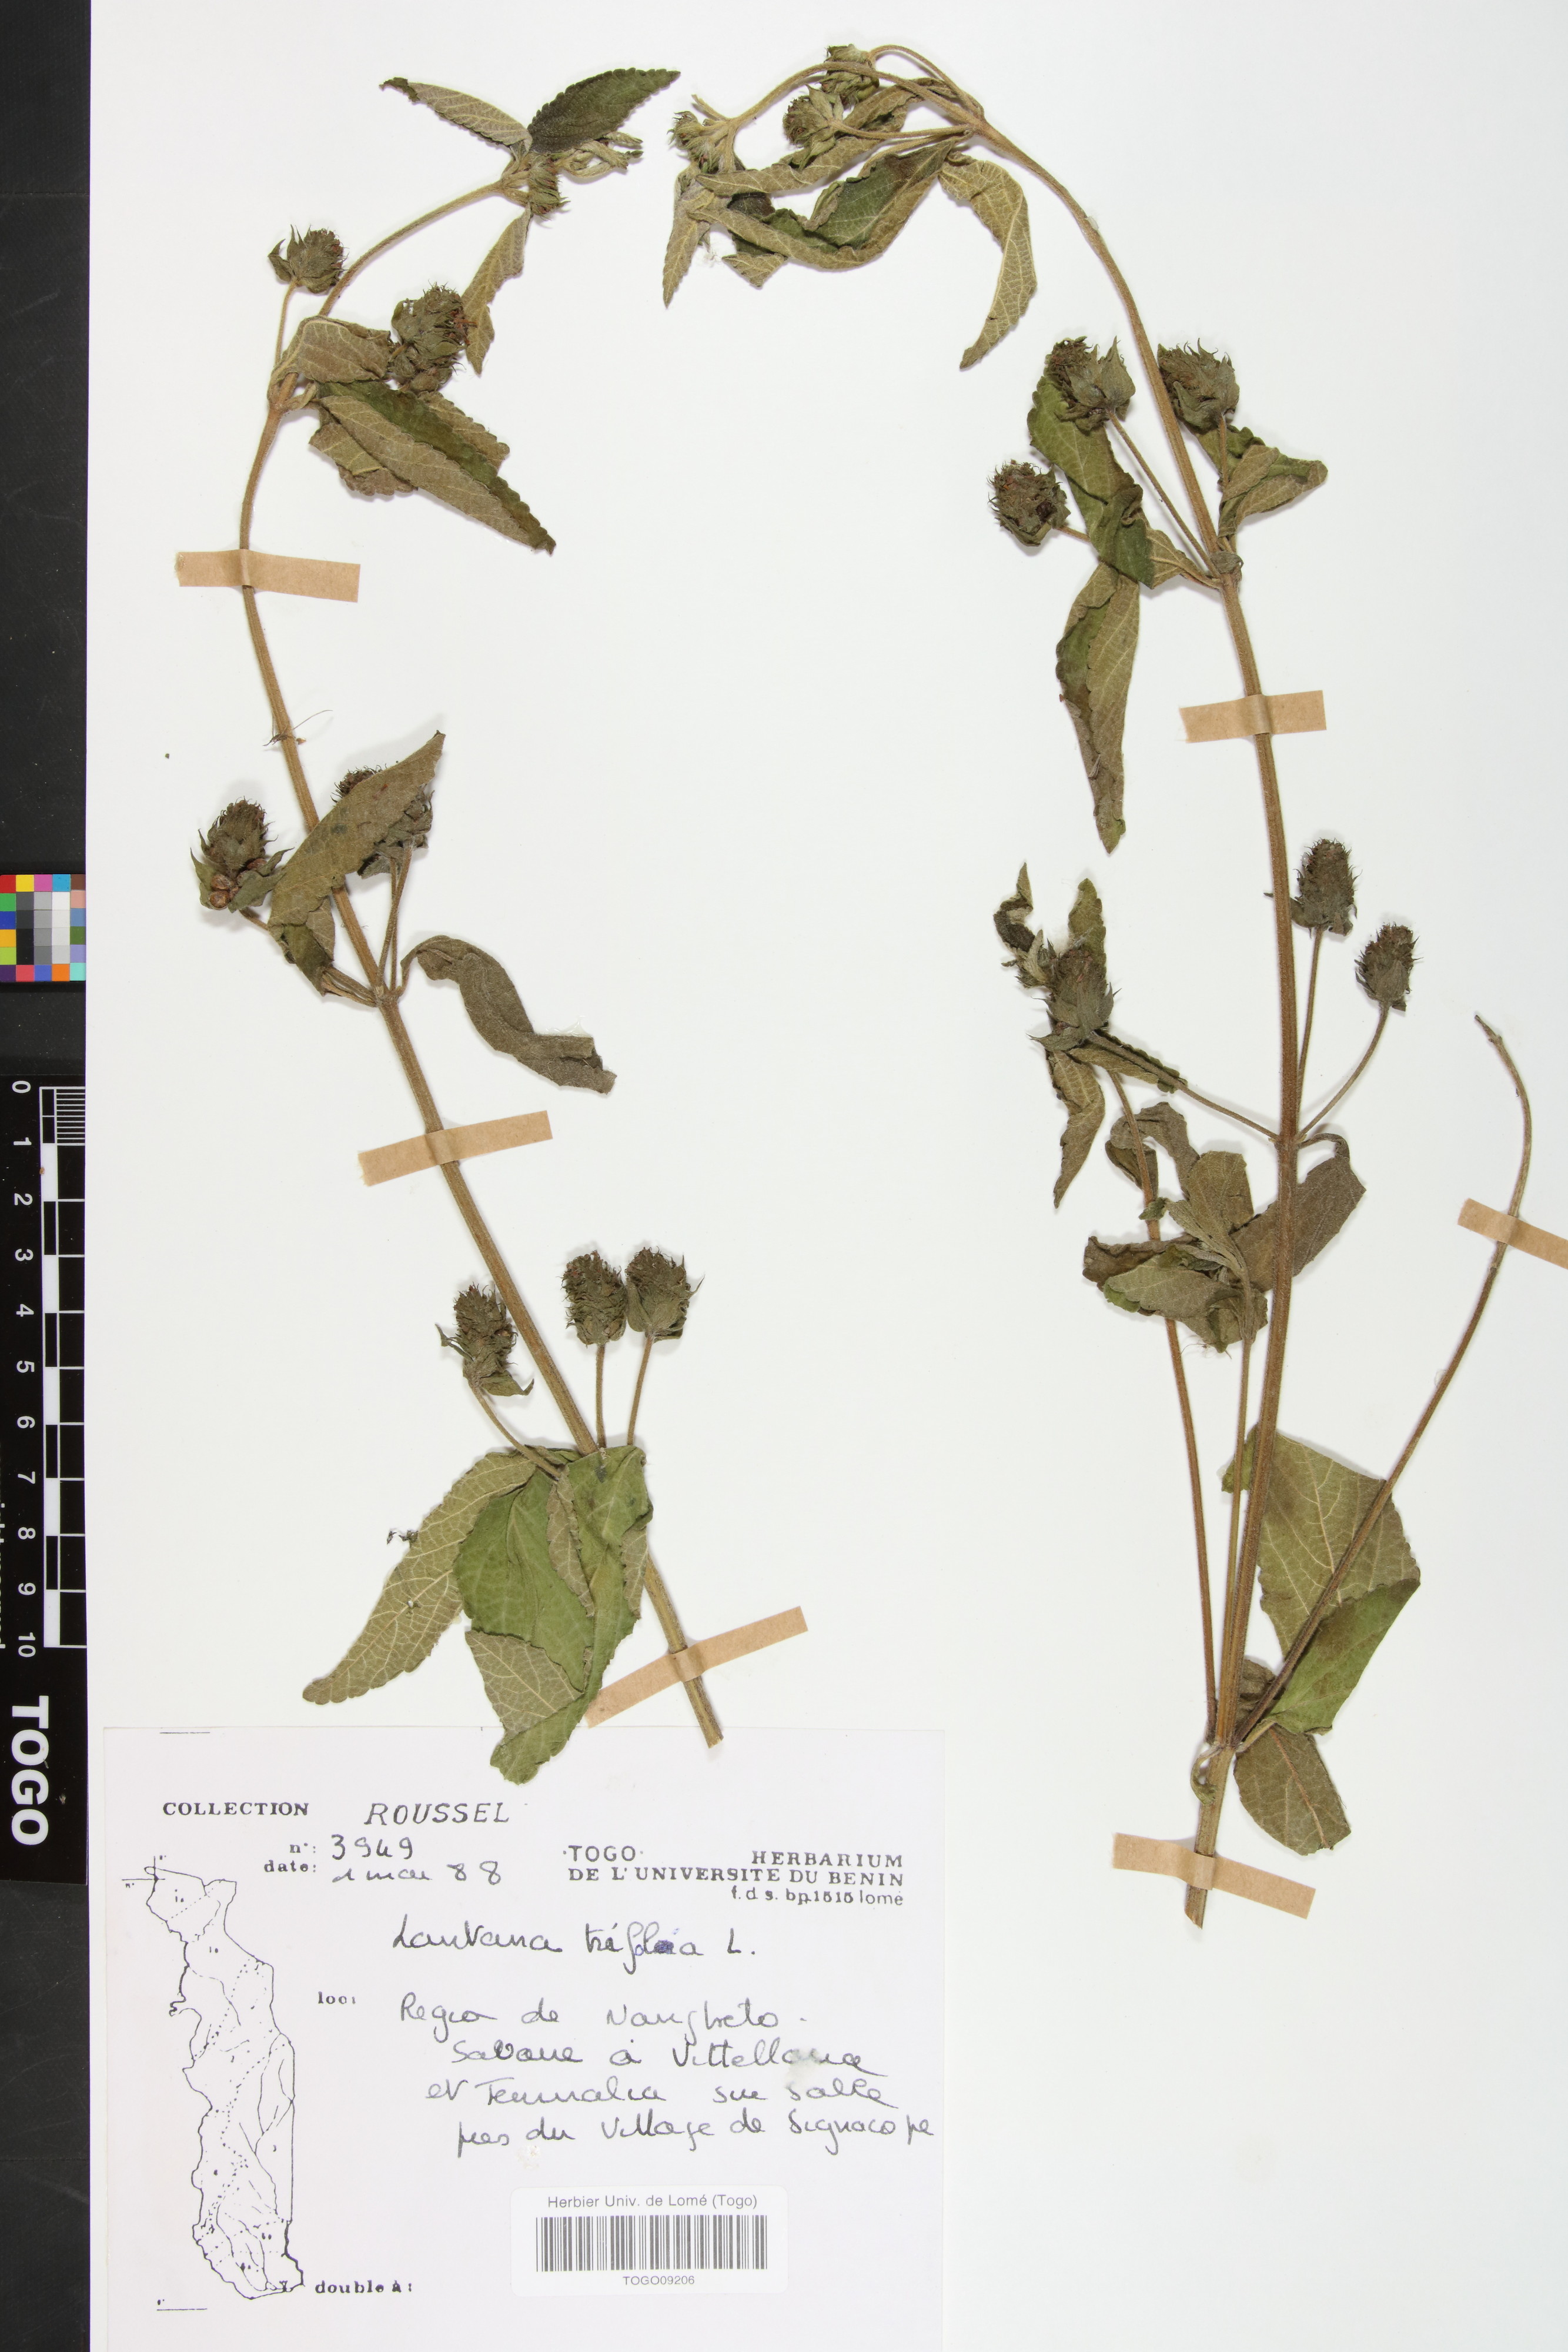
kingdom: Plantae
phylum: Tracheophyta
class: Magnoliopsida
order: Lamiales
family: Verbenaceae
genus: Lantana
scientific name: Lantana trifolia
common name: Sweet-sage
